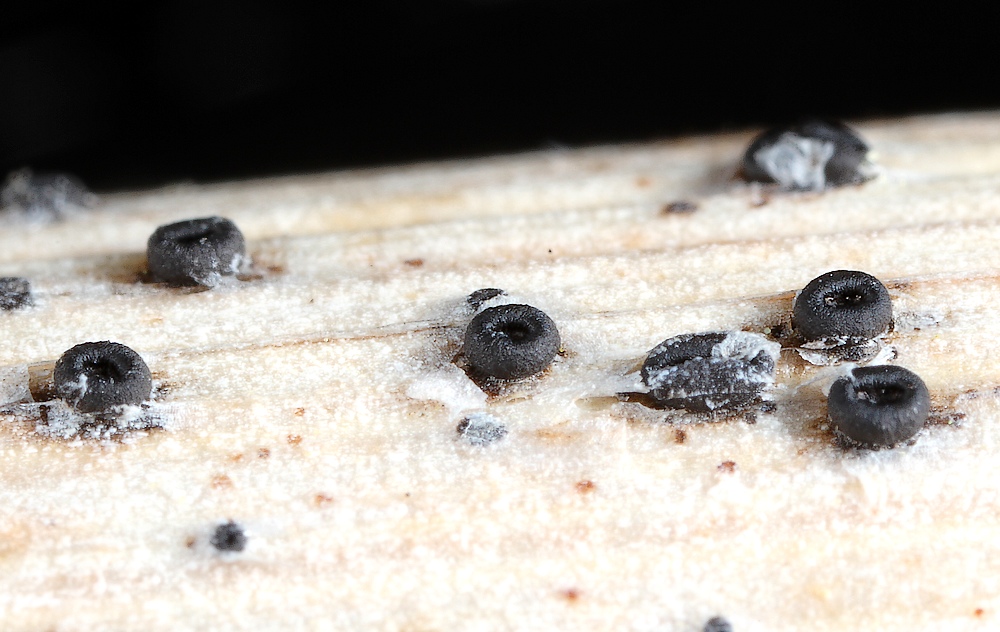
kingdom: Fungi
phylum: Ascomycota
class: Leotiomycetes
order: Helotiales
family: Heterosphaeriaceae
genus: Heterosphaeria
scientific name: Heterosphaeria
